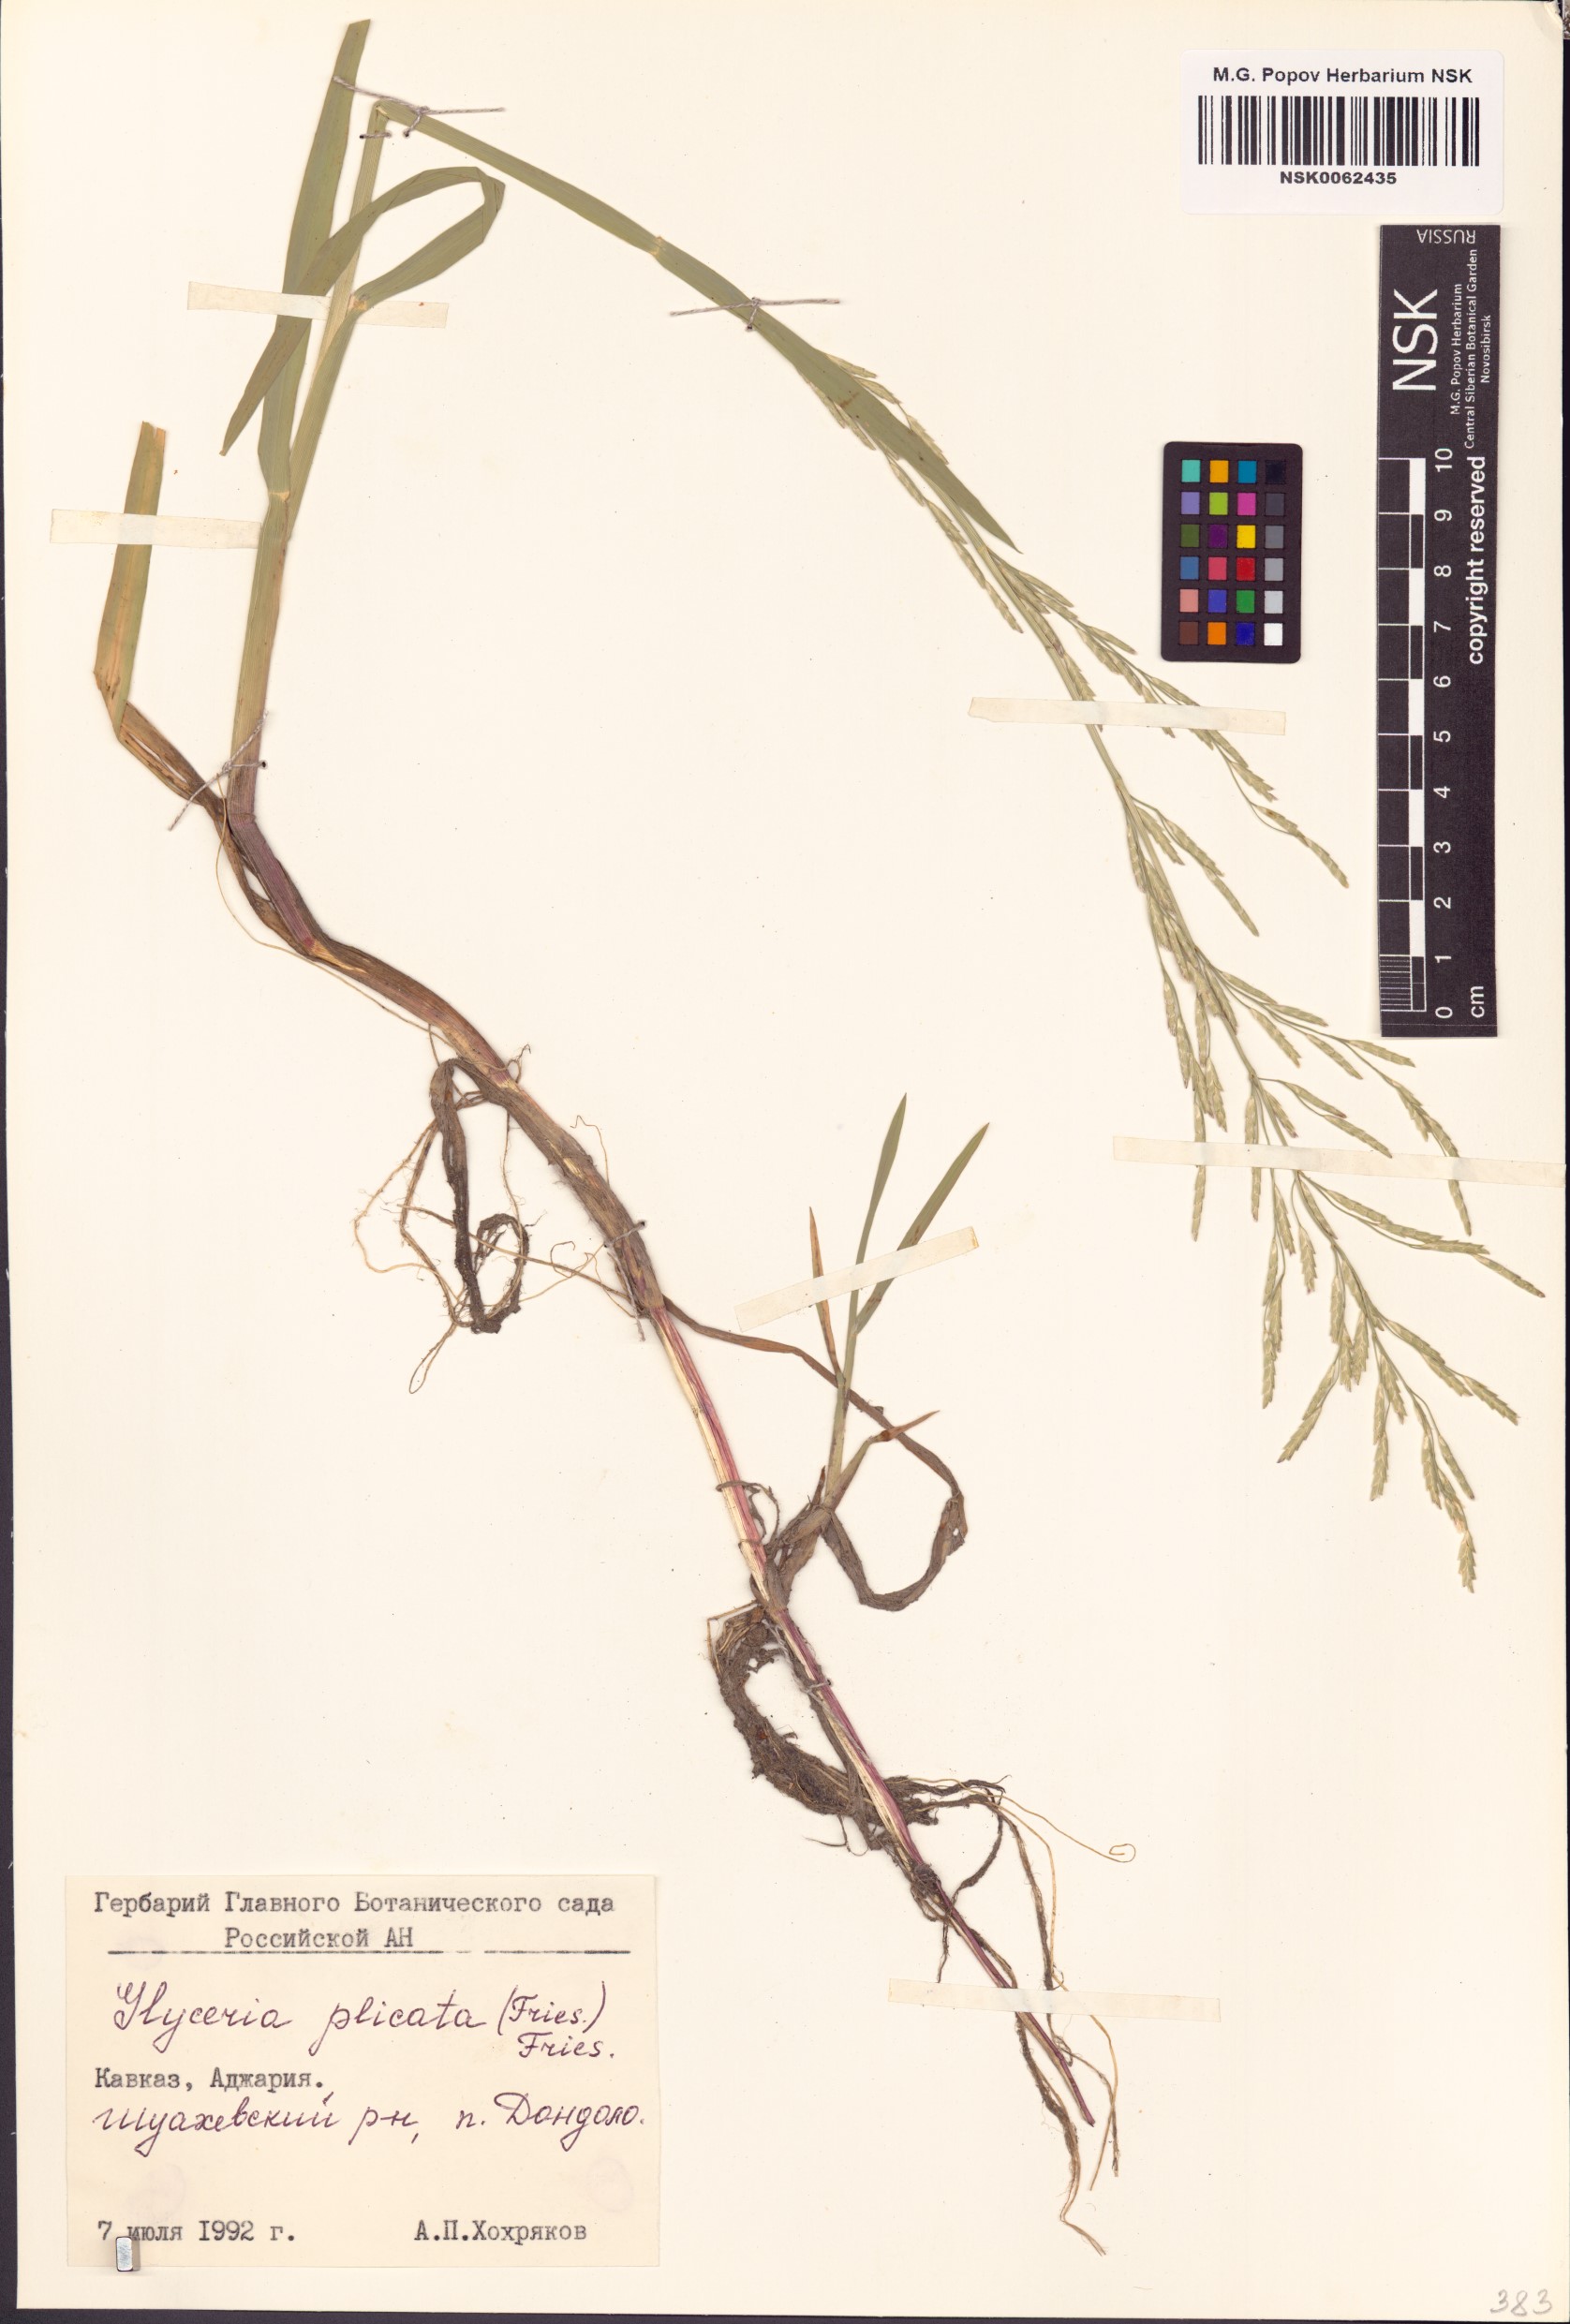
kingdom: Plantae
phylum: Tracheophyta
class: Liliopsida
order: Poales
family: Poaceae
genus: Glyceria
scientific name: Glyceria notata
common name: Plicate sweet-grass
